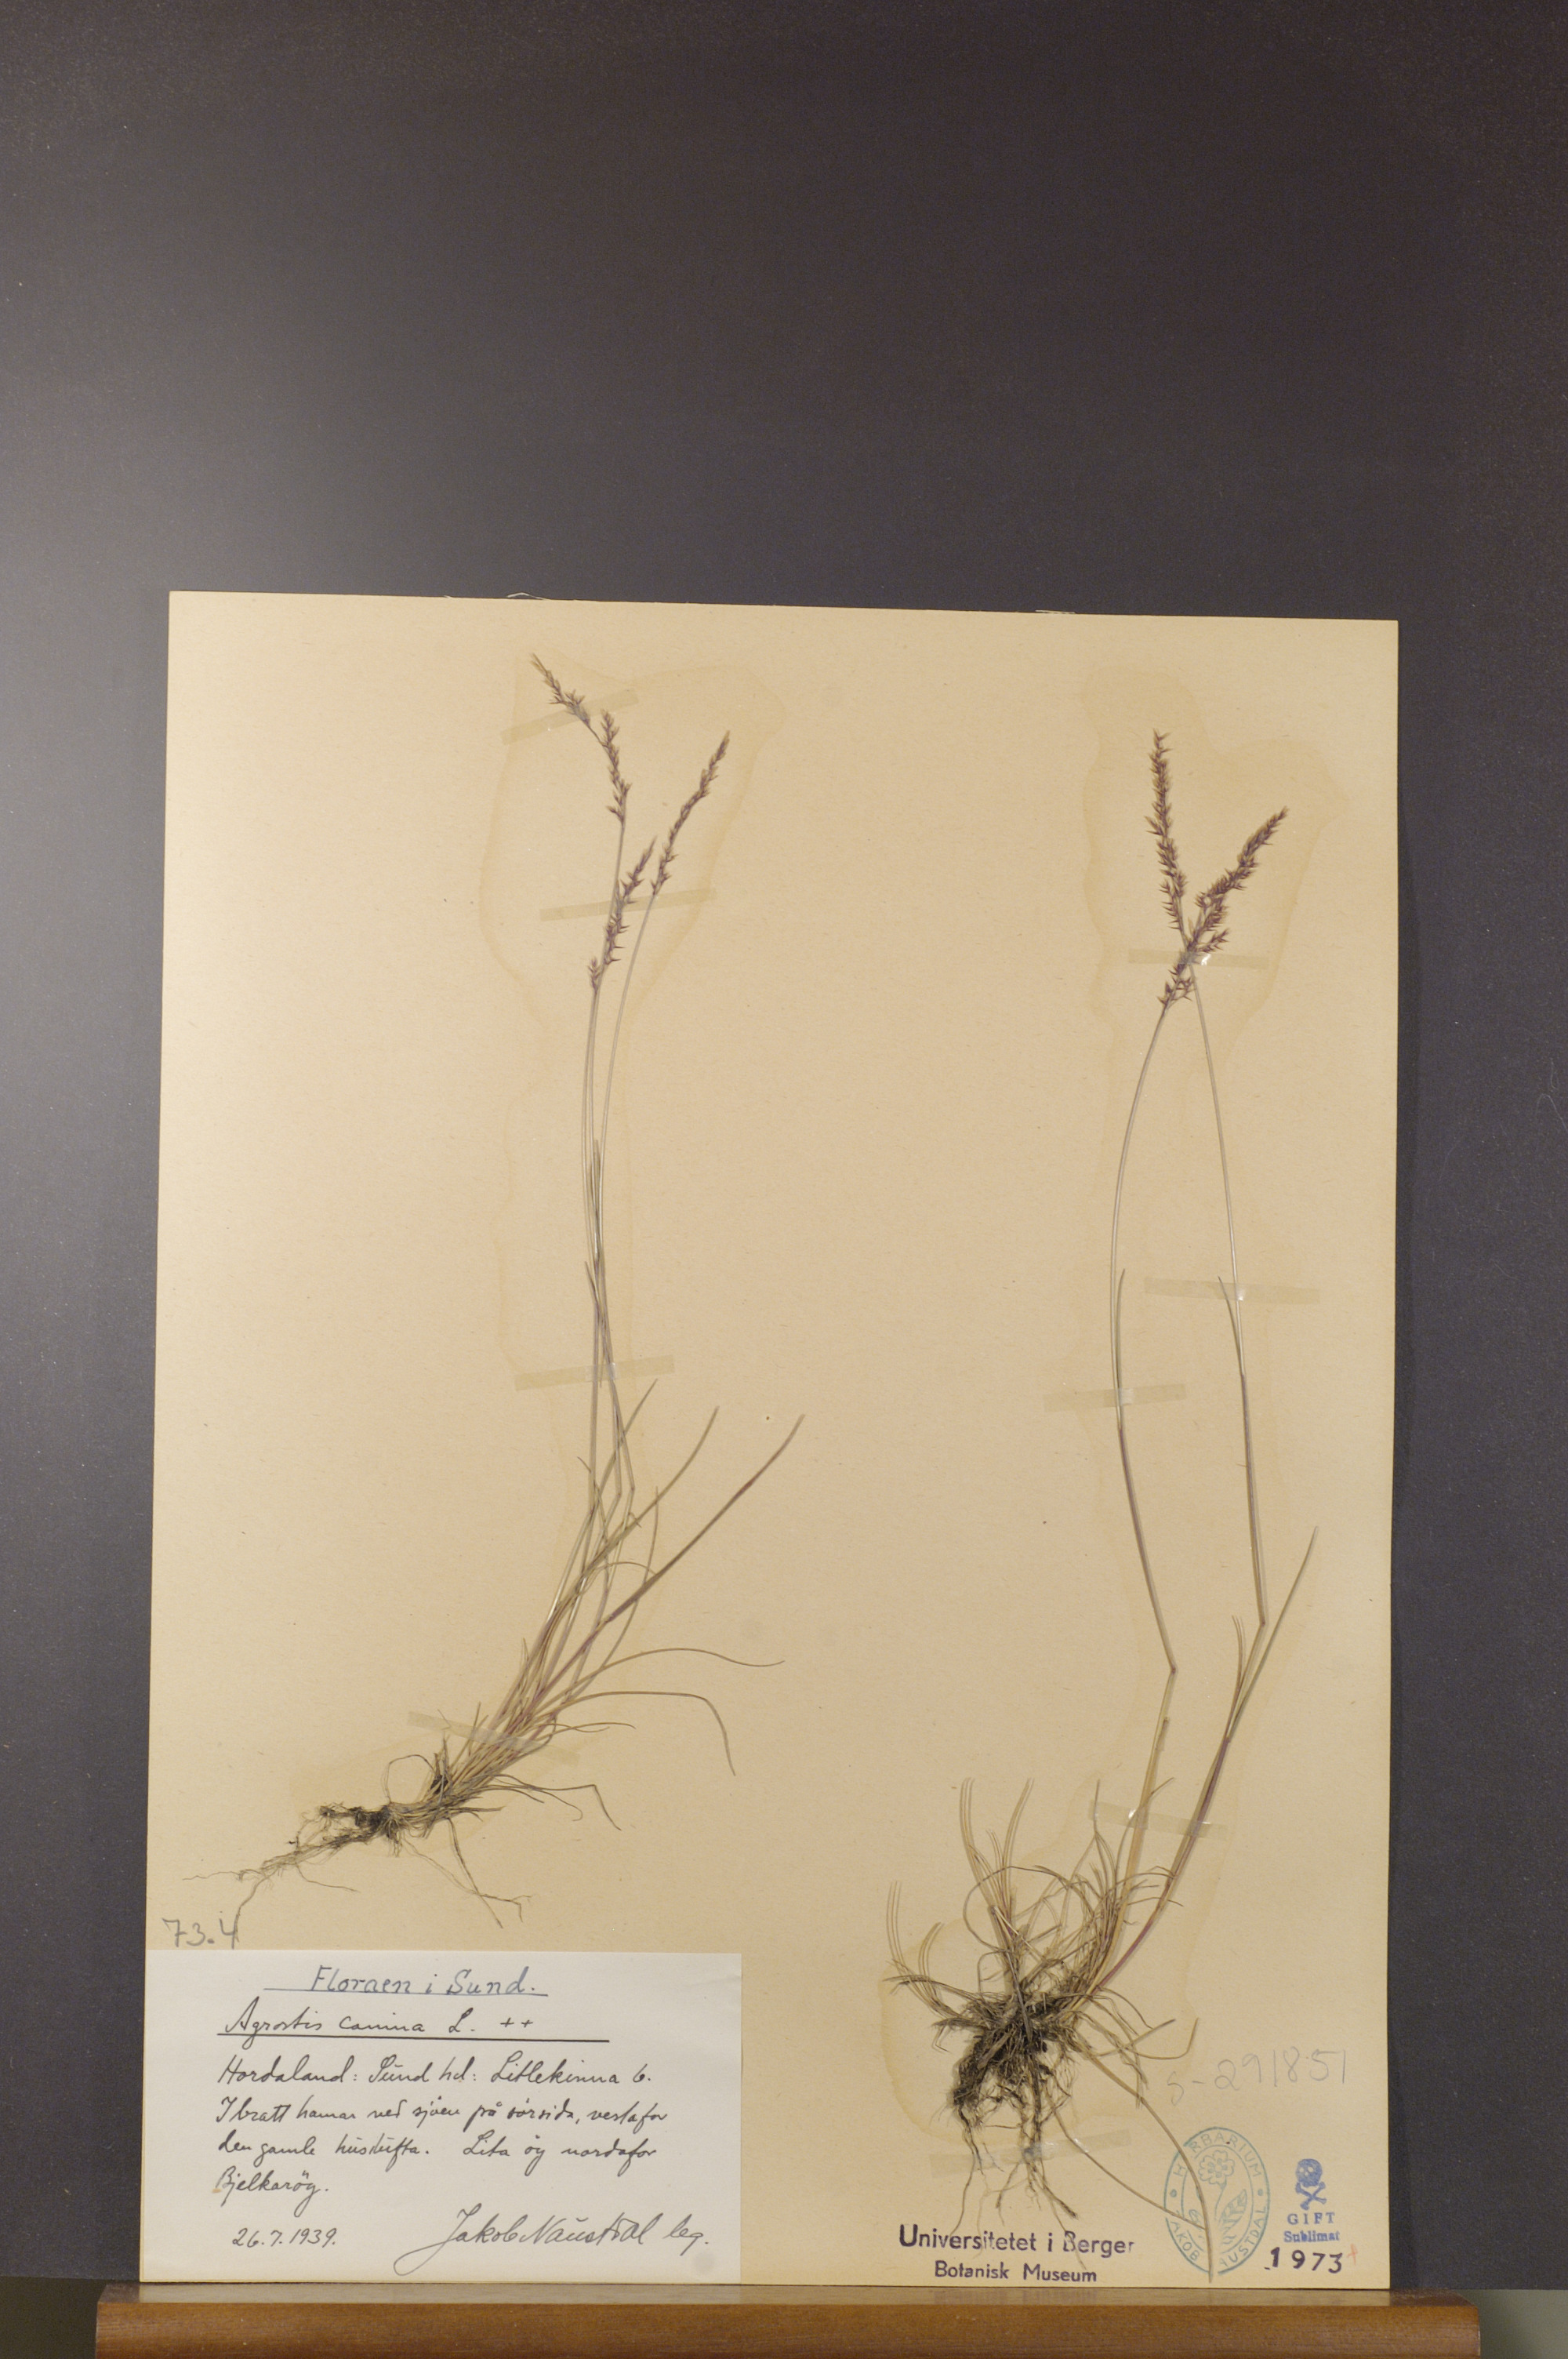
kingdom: Plantae
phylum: Tracheophyta
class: Liliopsida
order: Poales
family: Poaceae
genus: Agrostis
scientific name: Agrostis canina
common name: Velvet bent
